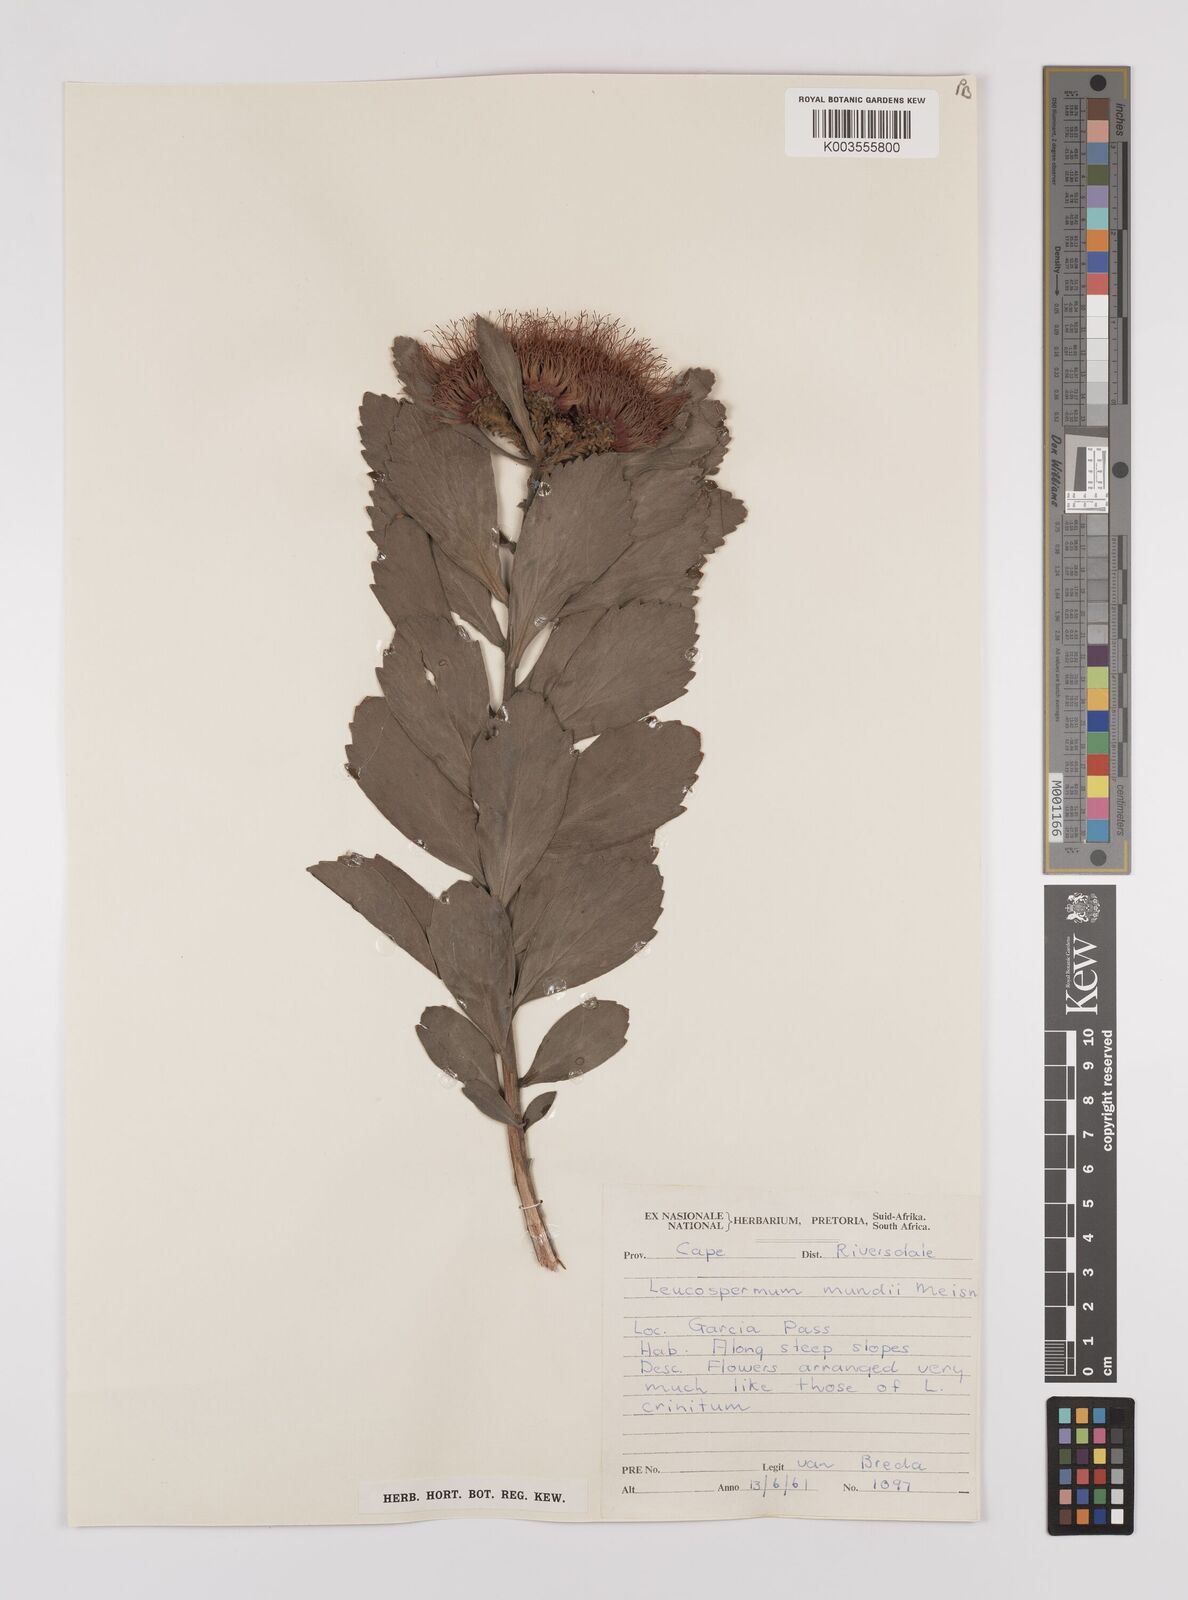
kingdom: Plantae
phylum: Tracheophyta
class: Magnoliopsida
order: Proteales
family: Proteaceae
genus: Leucospermum
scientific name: Leucospermum mundii
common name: Langeberg pincushion
